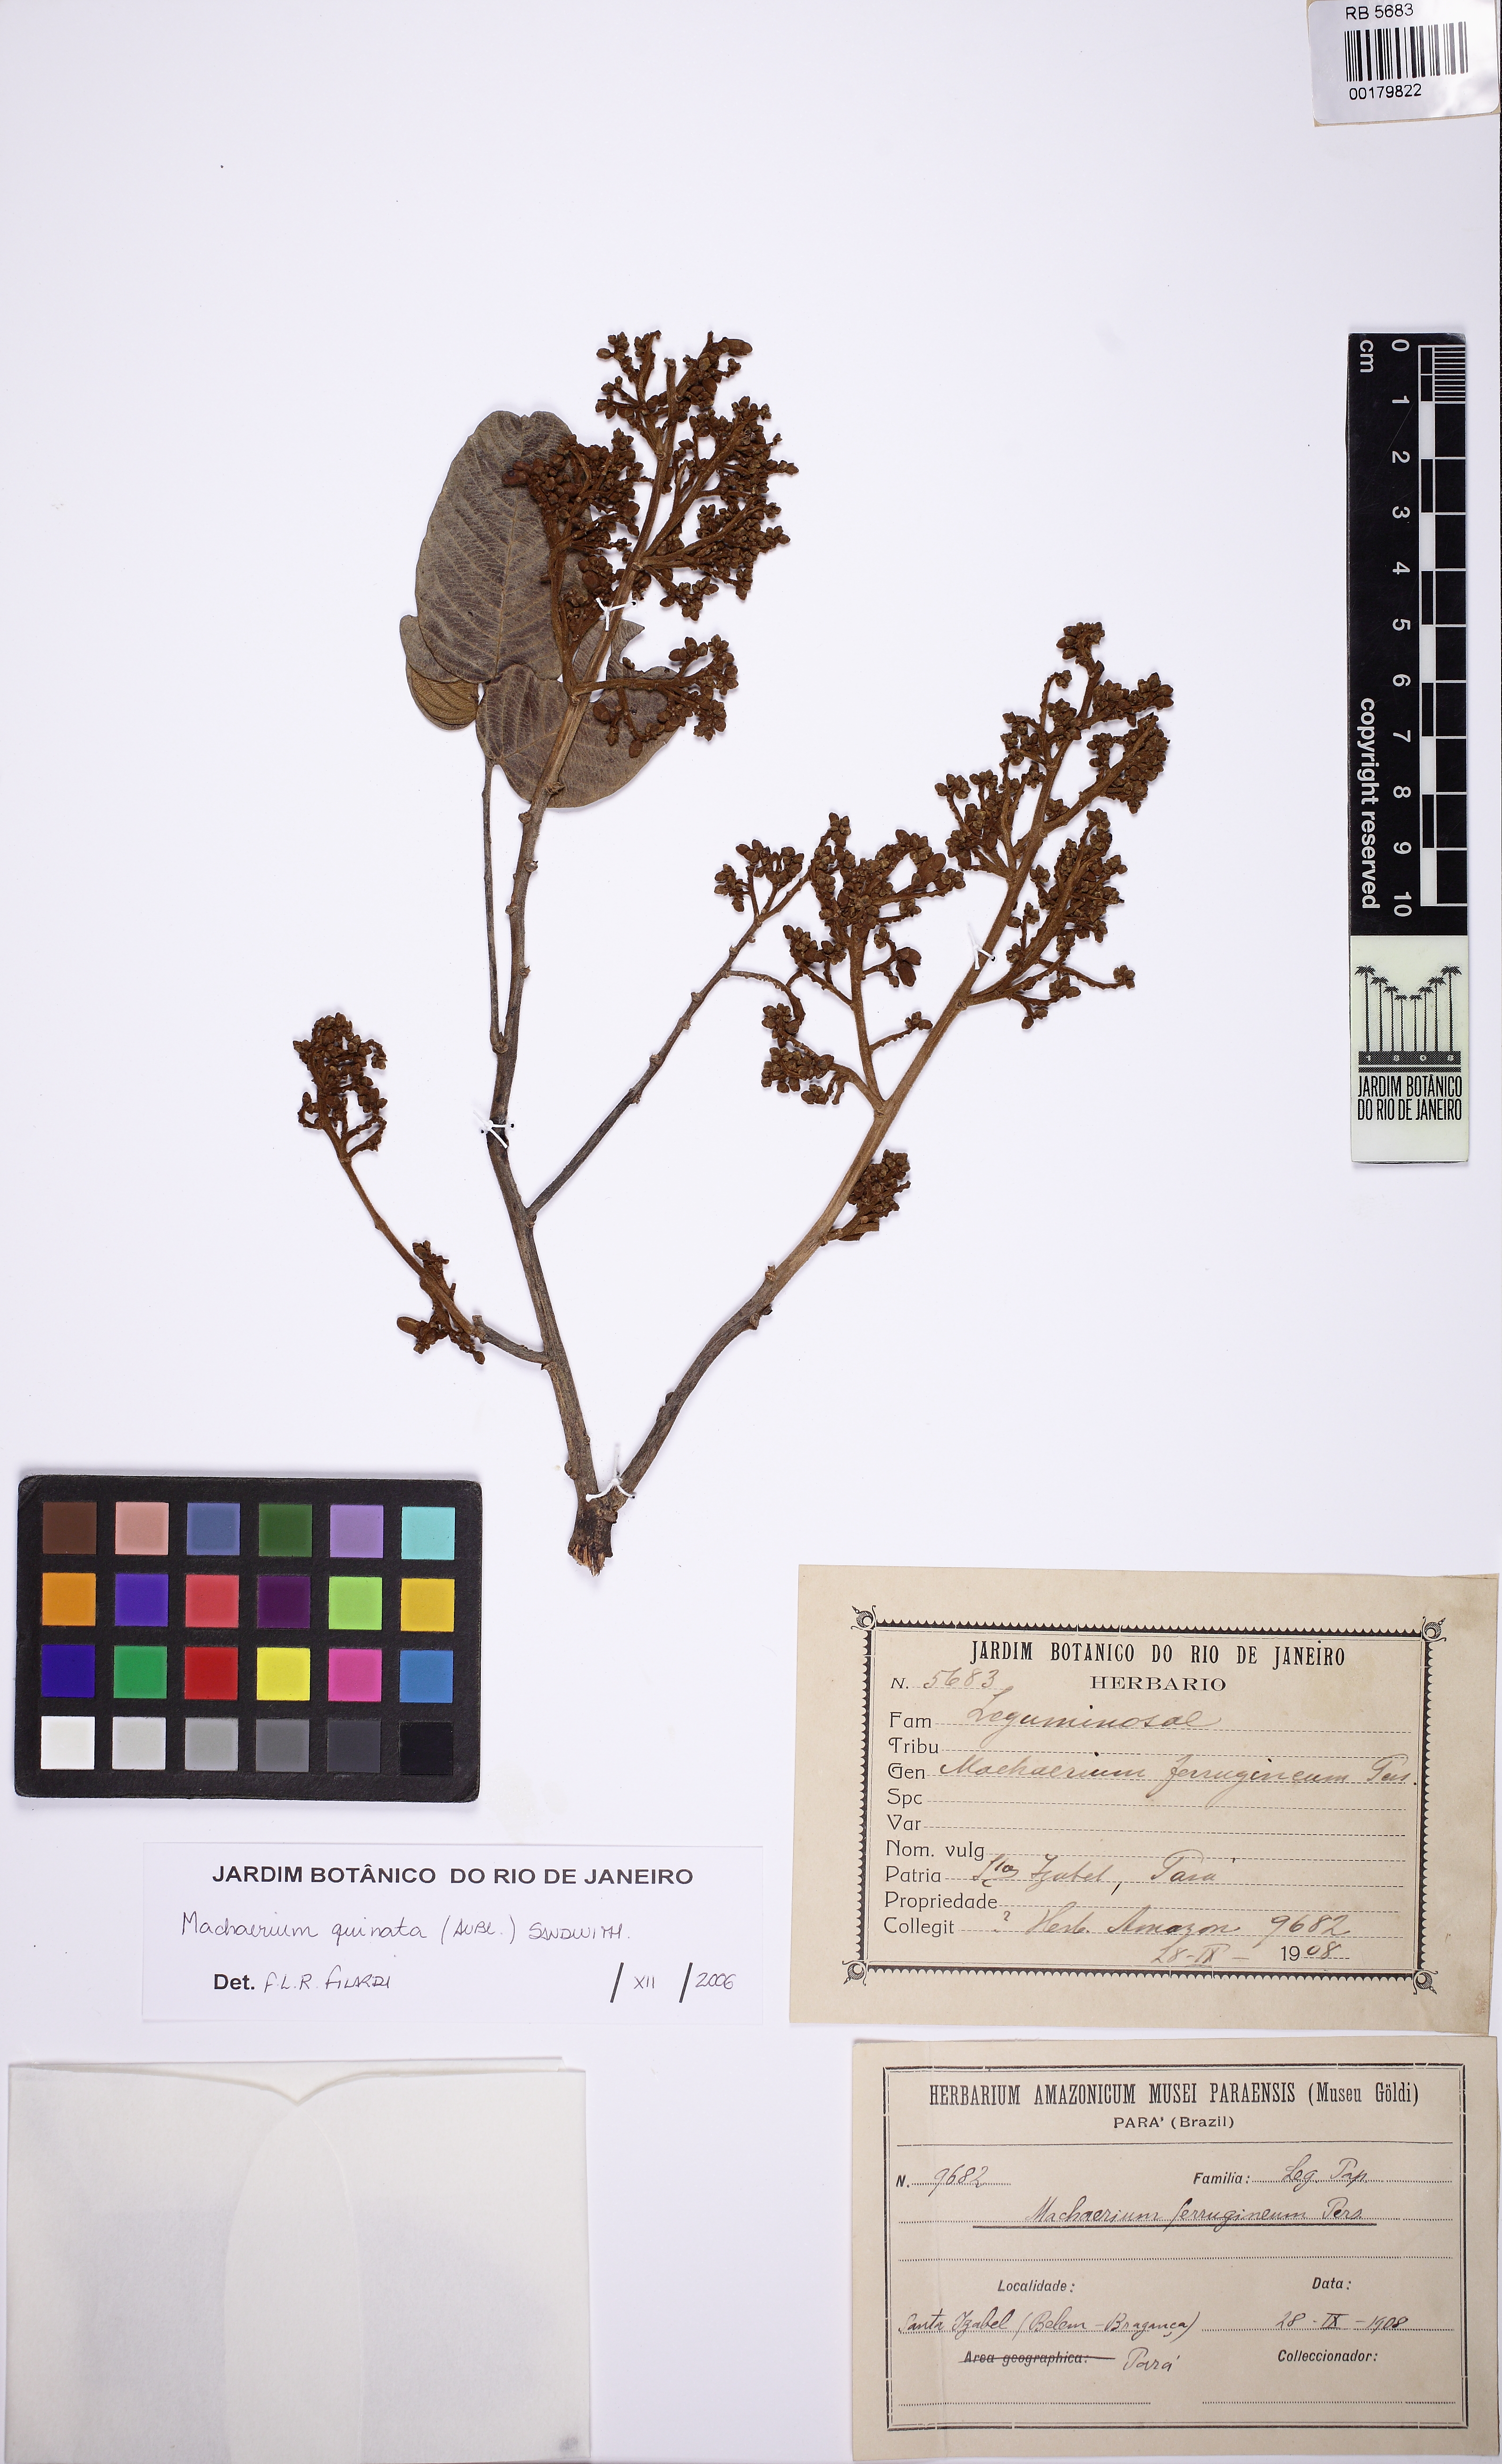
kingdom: Plantae
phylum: Tracheophyta
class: Magnoliopsida
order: Fabales
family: Fabaceae
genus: Machaerium
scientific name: Machaerium quinata
